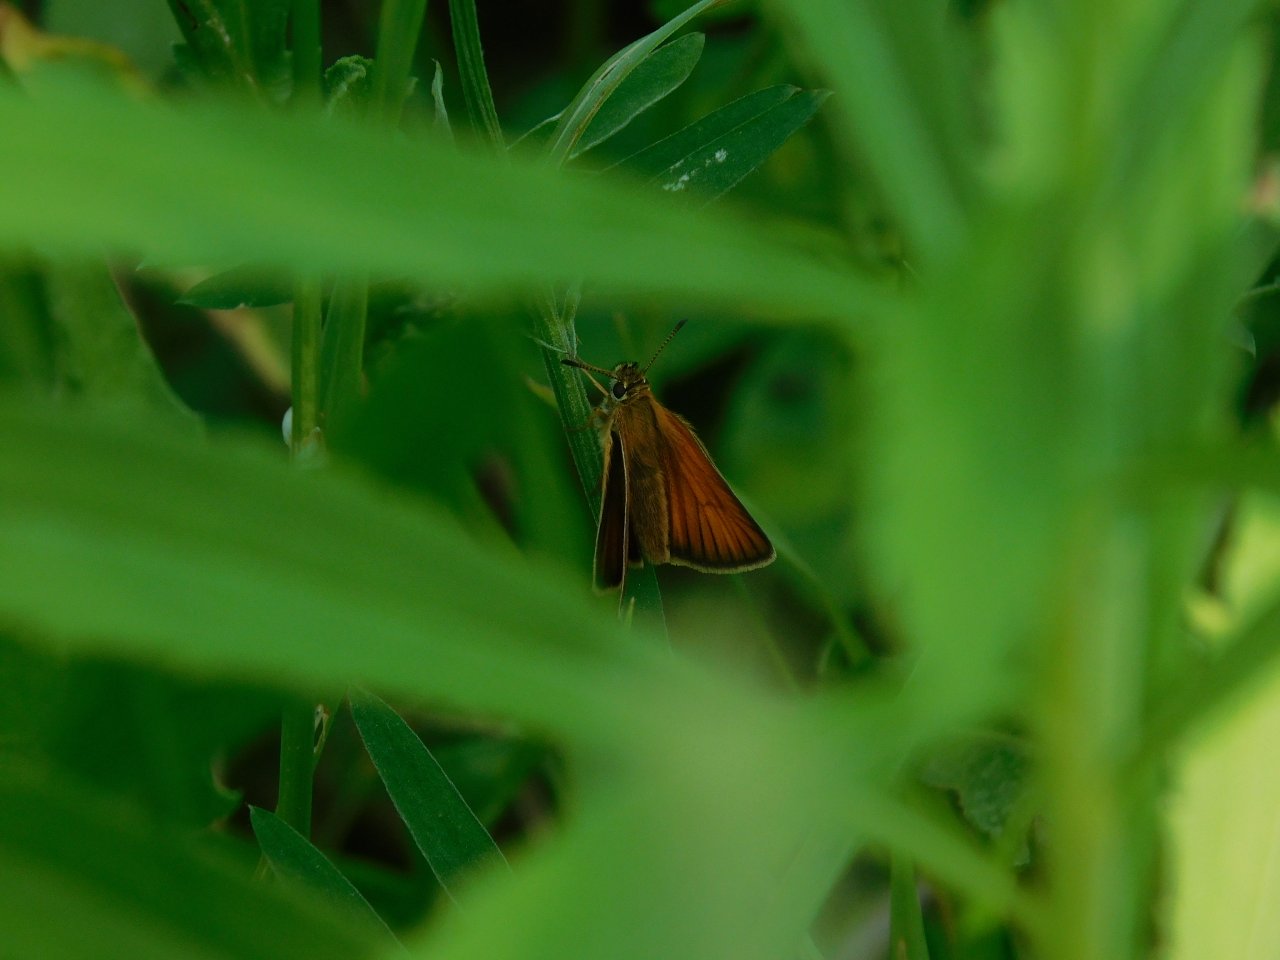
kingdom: Animalia
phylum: Arthropoda
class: Insecta
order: Lepidoptera
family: Hesperiidae
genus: Thymelicus
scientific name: Thymelicus lineola
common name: European Skipper
